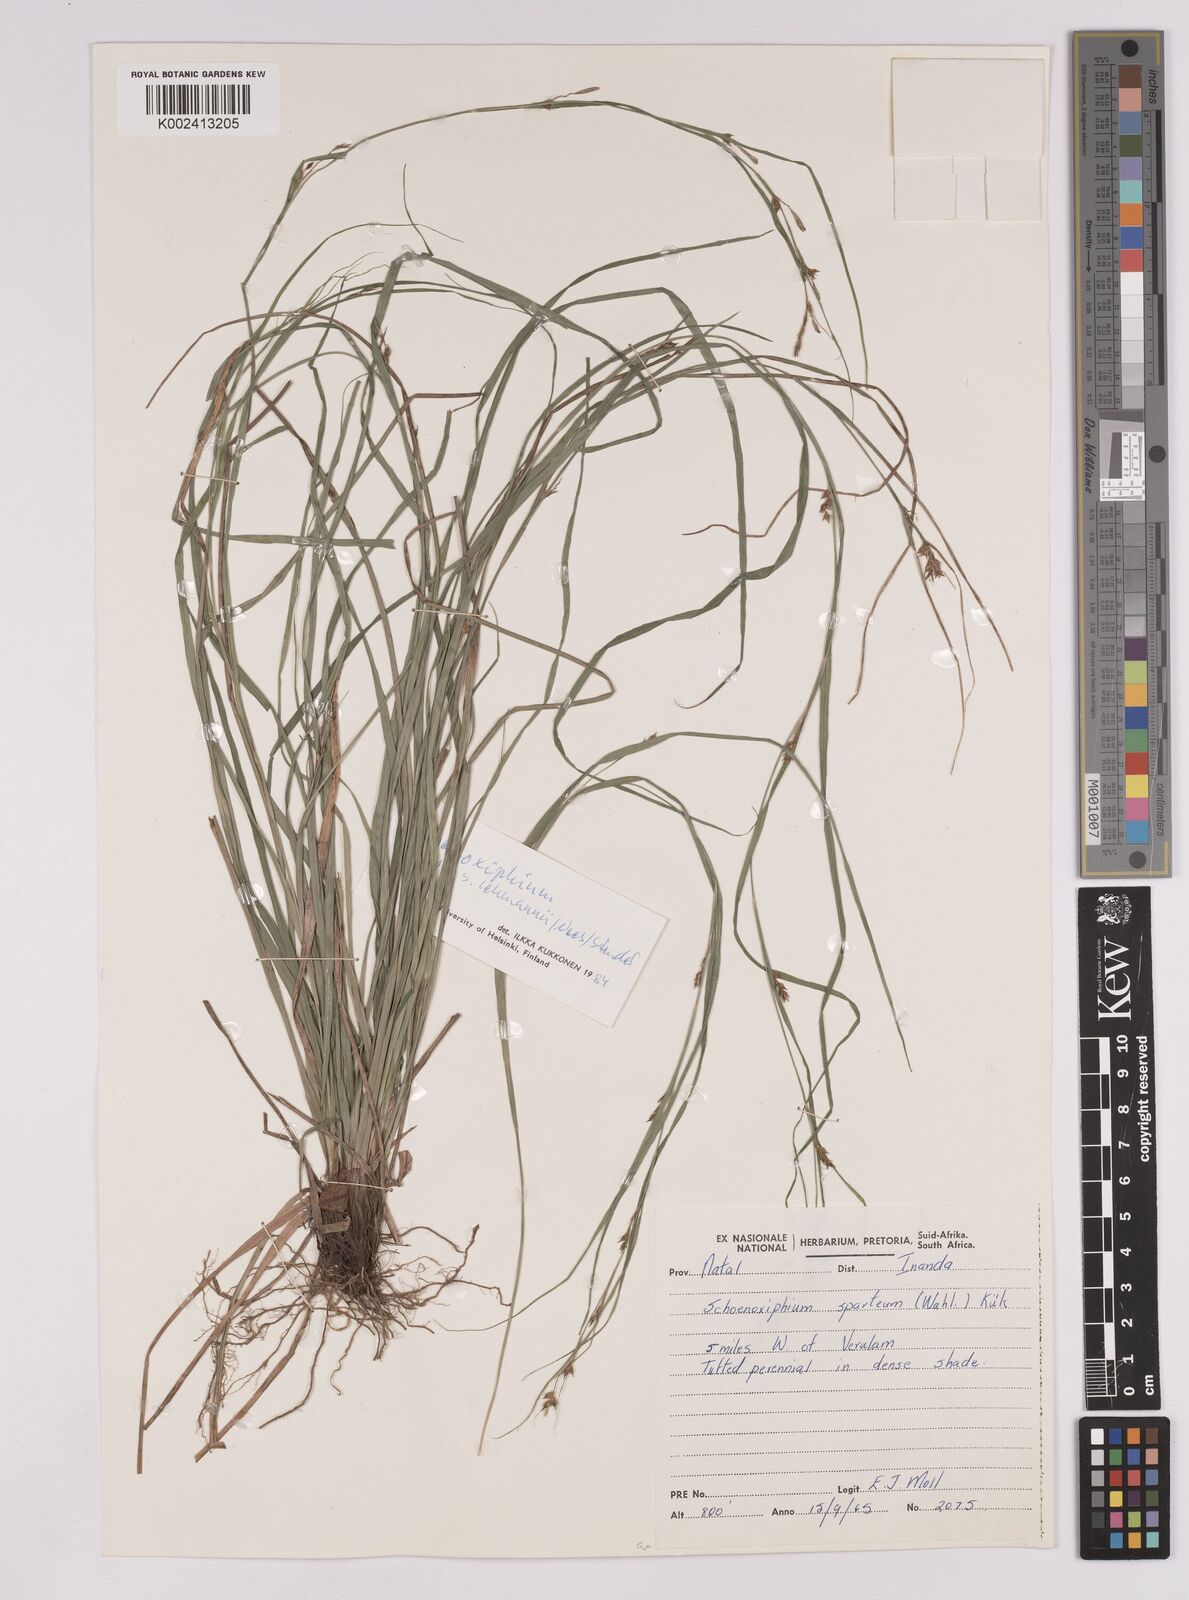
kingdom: Plantae
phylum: Tracheophyta
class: Liliopsida
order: Poales
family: Cyperaceae
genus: Carex
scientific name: Carex uhligii
